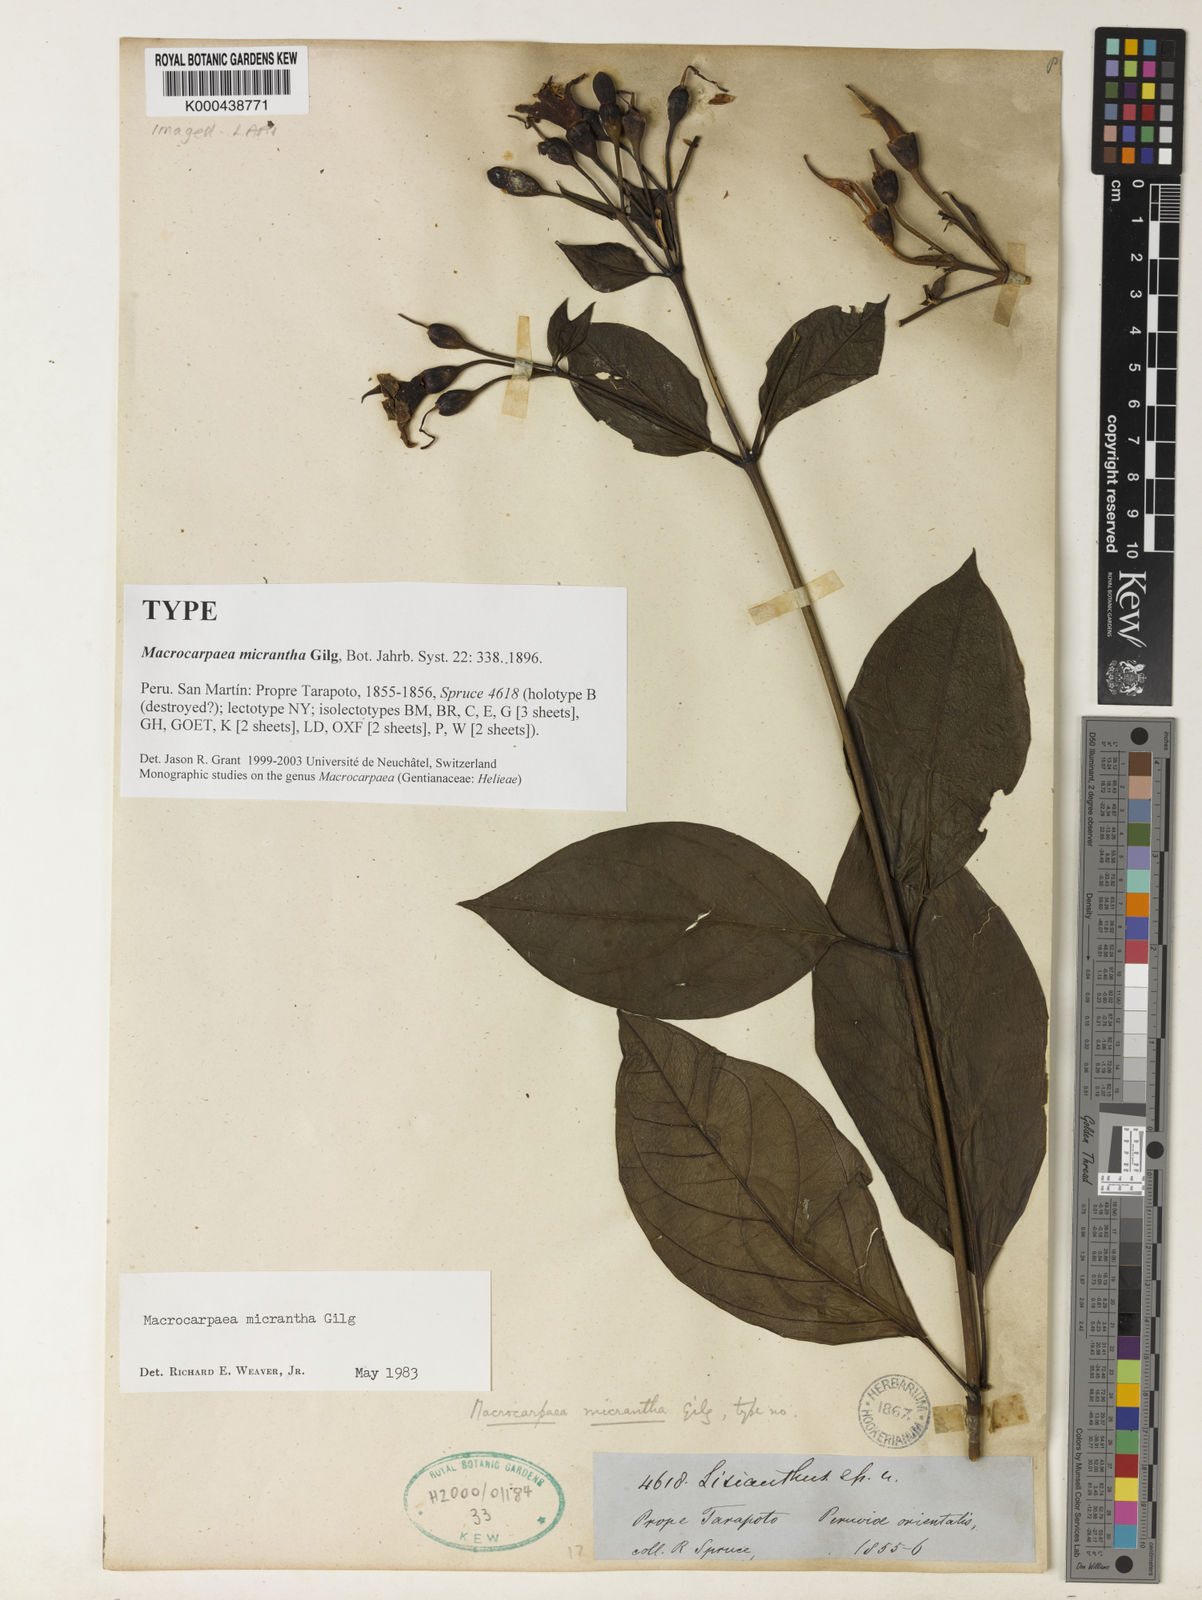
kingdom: Plantae
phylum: Tracheophyta
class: Magnoliopsida
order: Gentianales
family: Gentianaceae
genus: Macrocarpaea
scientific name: Macrocarpaea micrantha
